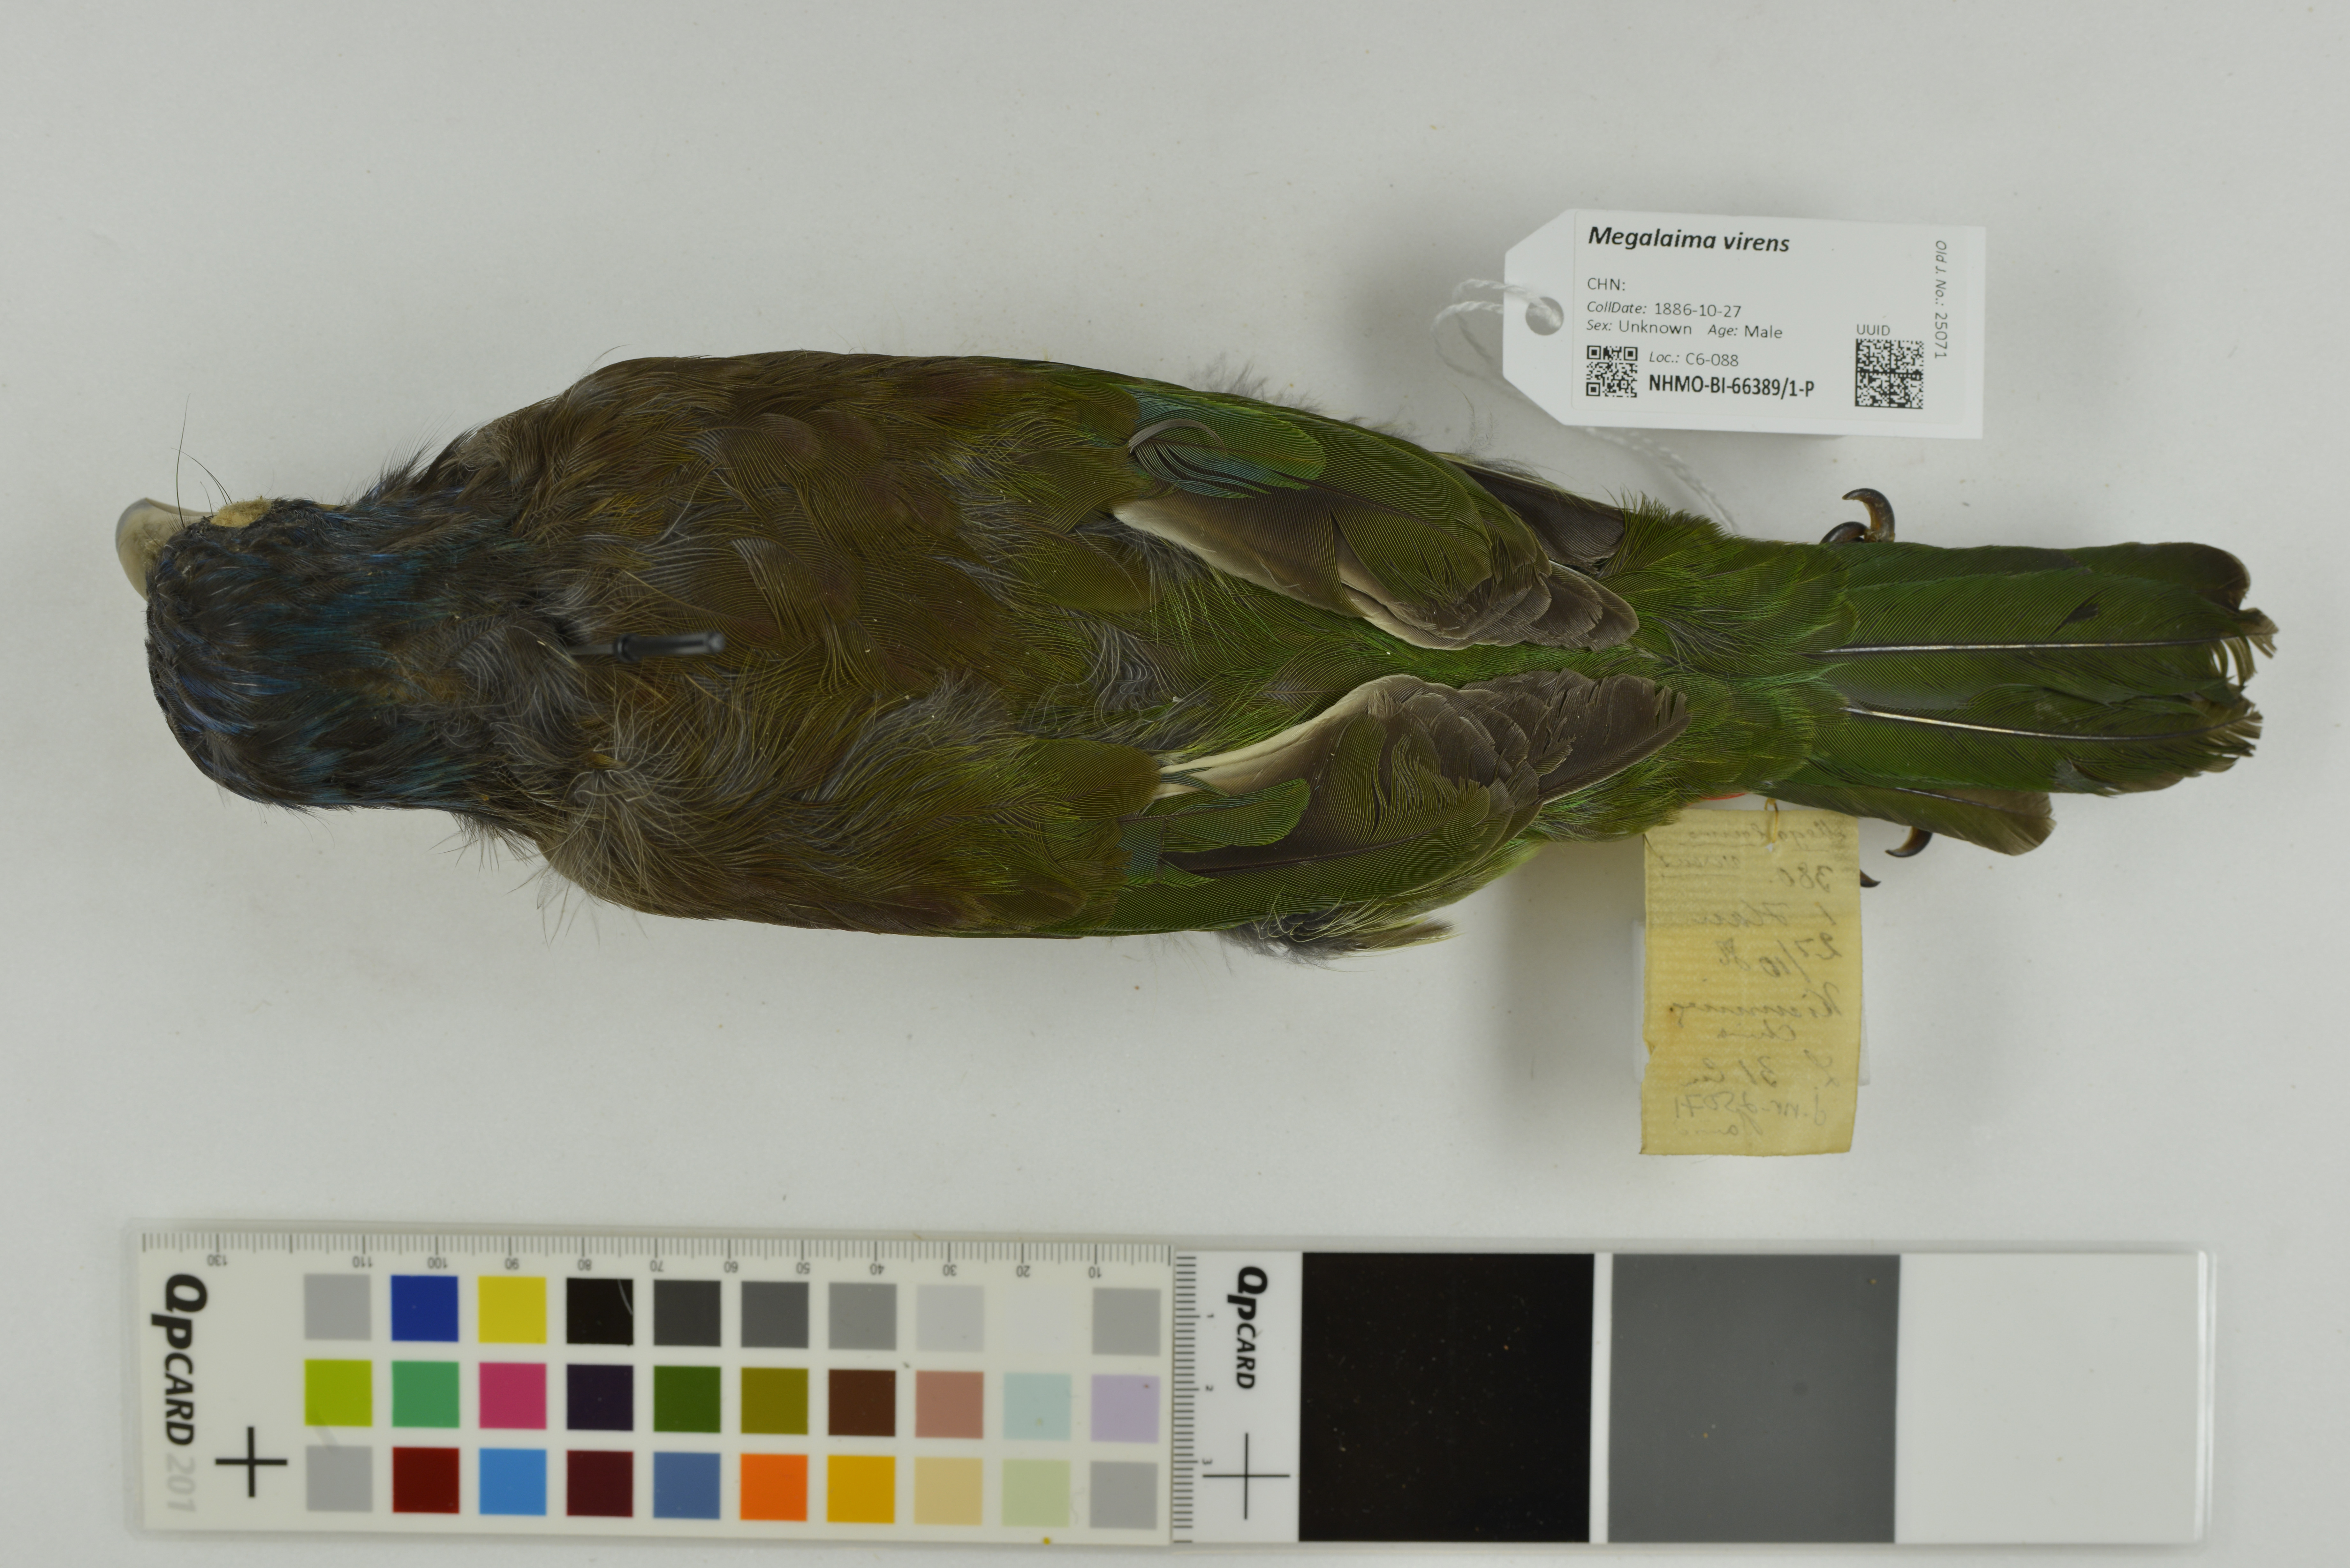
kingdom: Animalia
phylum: Chordata
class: Aves
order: Piciformes
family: Megalaimidae
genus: Psilopogon
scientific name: Psilopogon virens
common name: Great barbet
